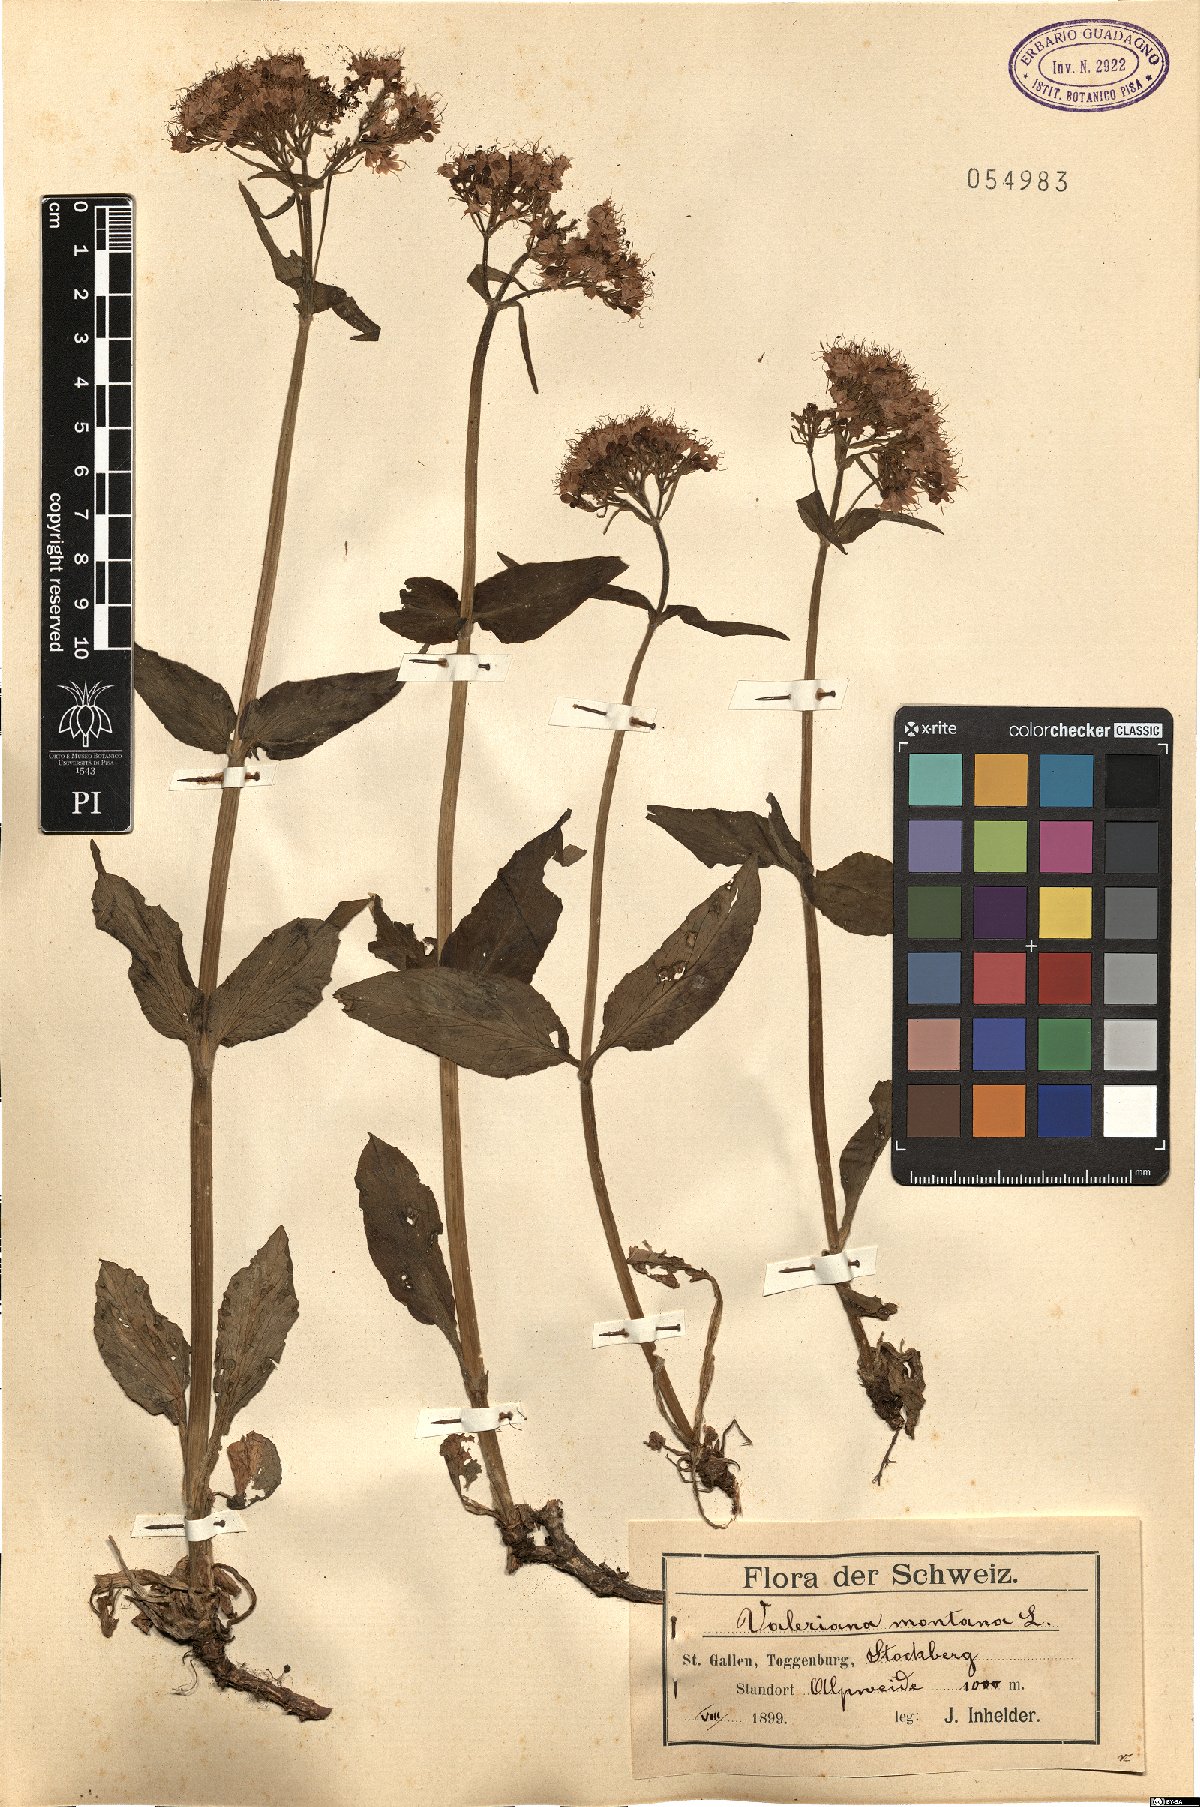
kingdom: Plantae
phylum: Tracheophyta
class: Magnoliopsida
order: Dipsacales
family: Caprifoliaceae
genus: Valeriana
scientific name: Valeriana montana
